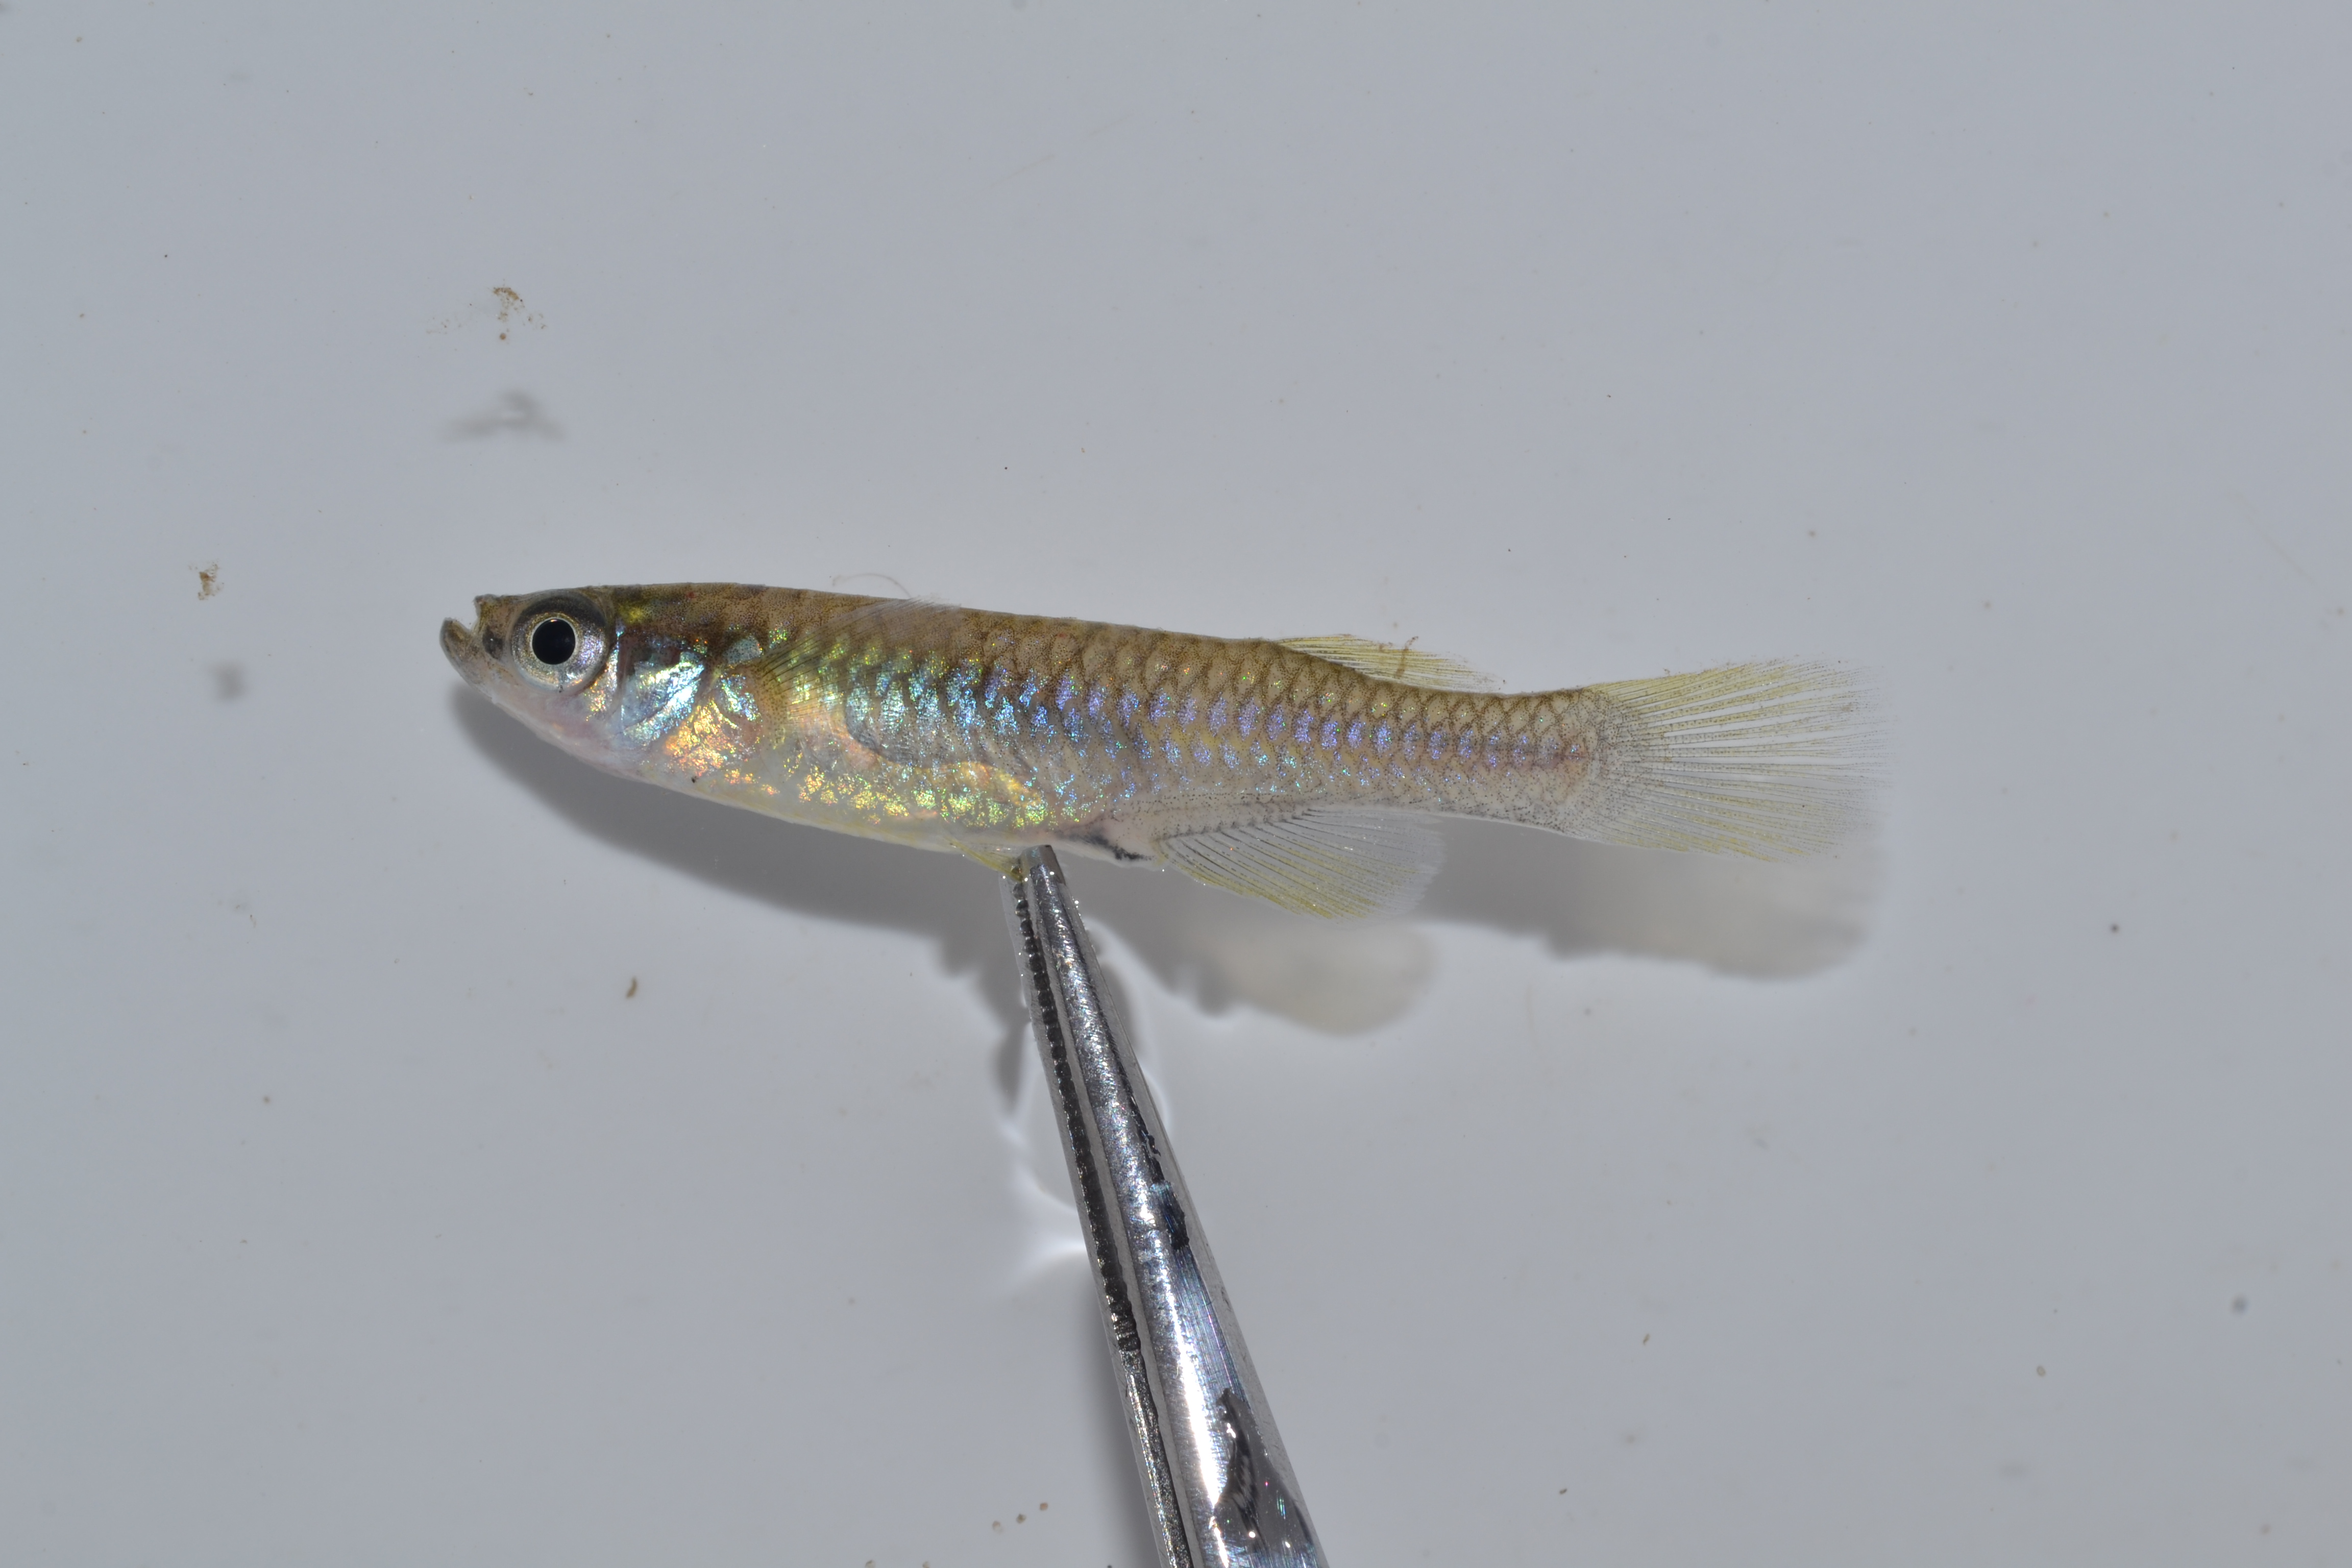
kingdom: Animalia
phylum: Chordata
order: Cyprinodontiformes
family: Poeciliidae
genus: Lacustricola
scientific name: Lacustricola myaposae
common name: Natal lampeye
